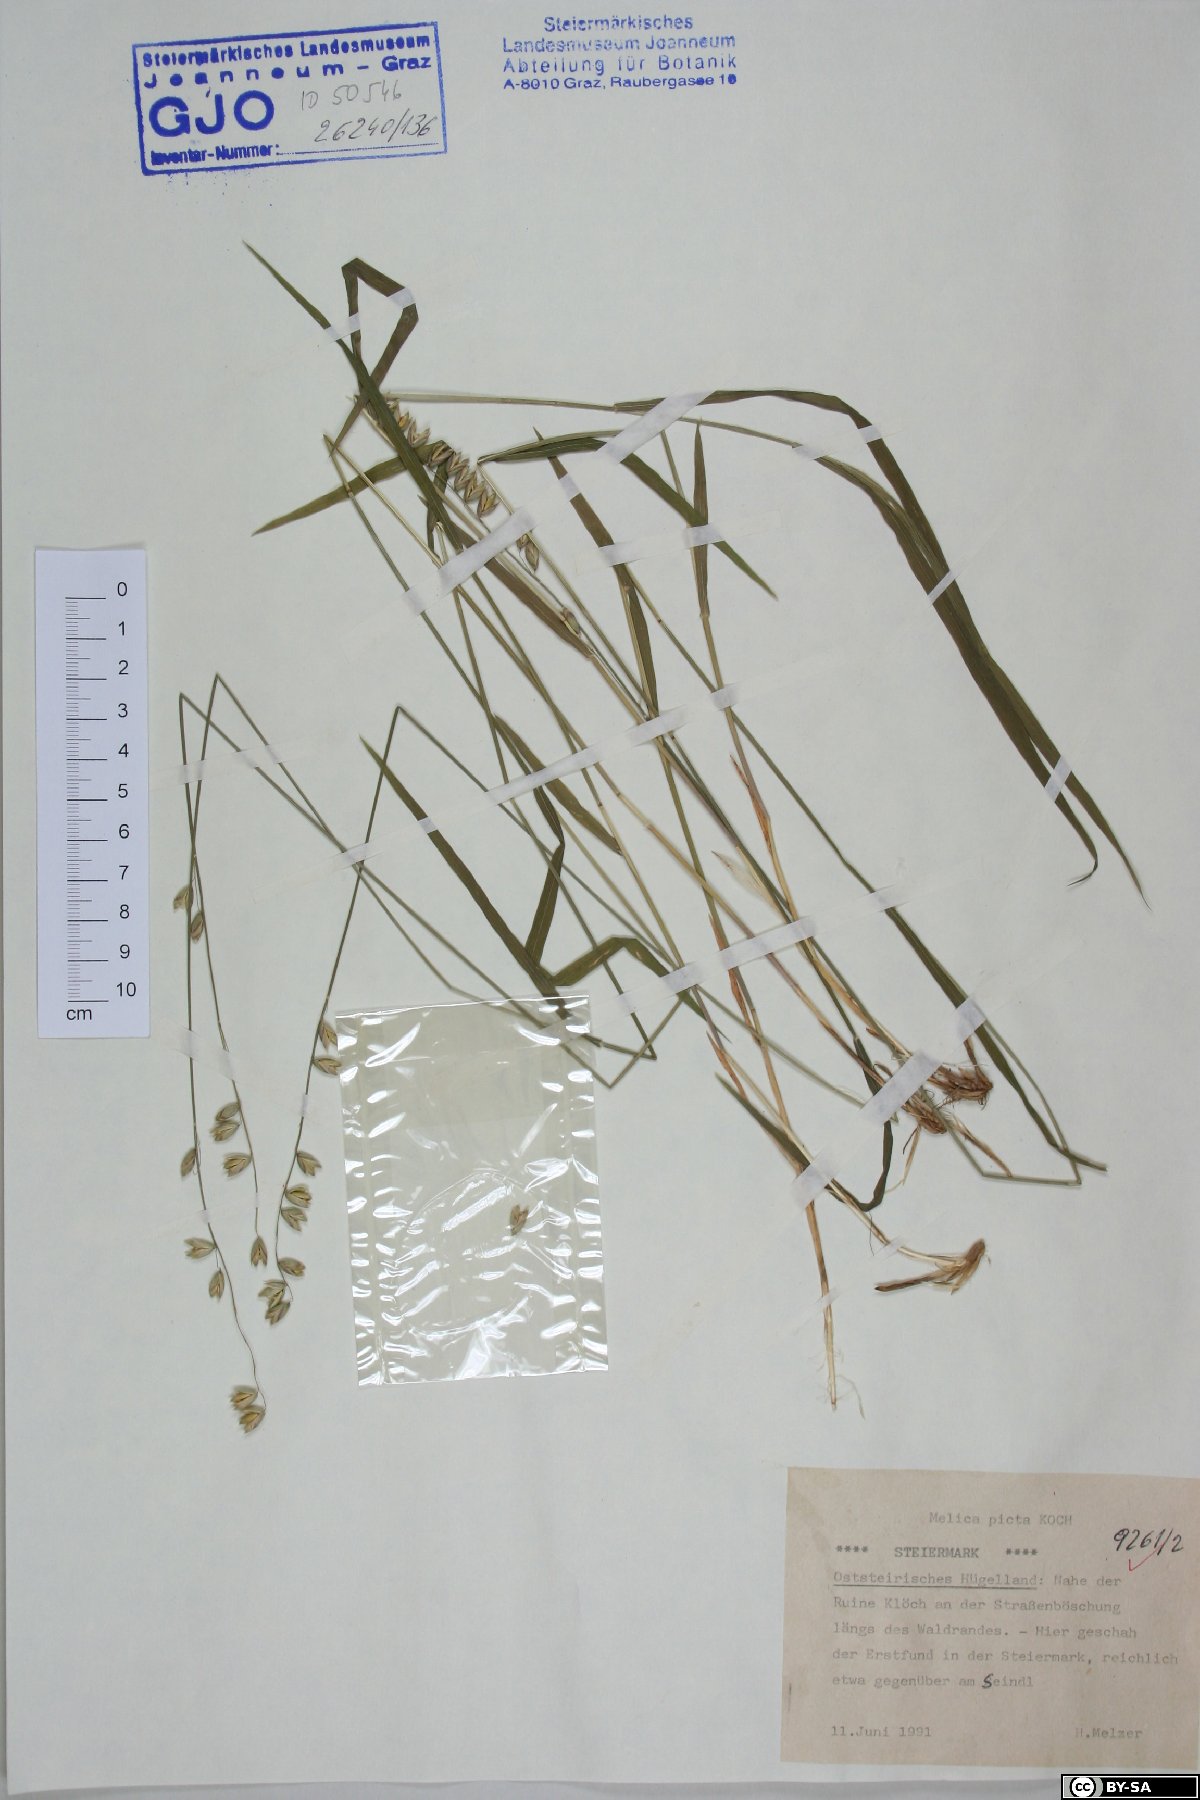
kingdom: Plantae
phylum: Tracheophyta
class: Liliopsida
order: Poales
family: Poaceae
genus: Melica
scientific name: Melica picta
